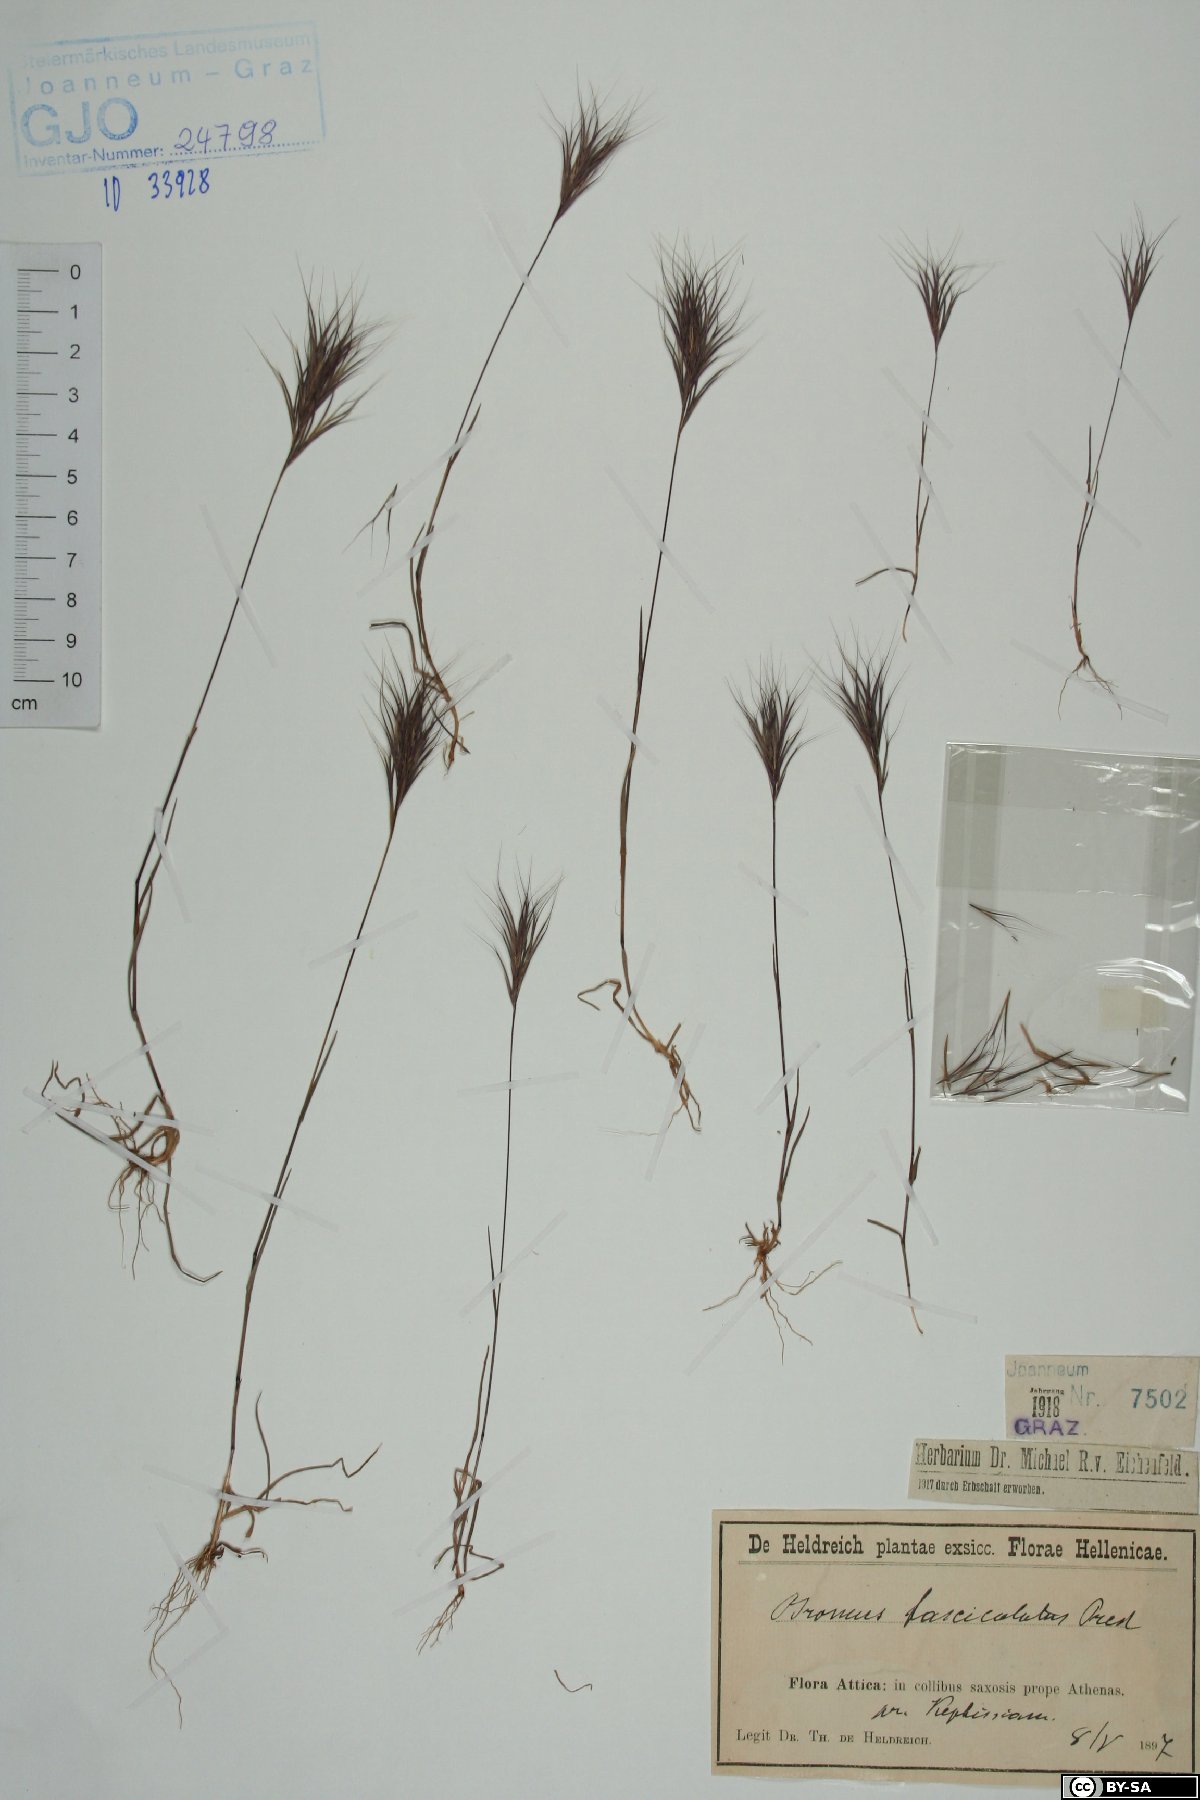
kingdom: Plantae
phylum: Tracheophyta
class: Liliopsida
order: Poales
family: Poaceae
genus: Bromus
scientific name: Bromus fasciculatus
